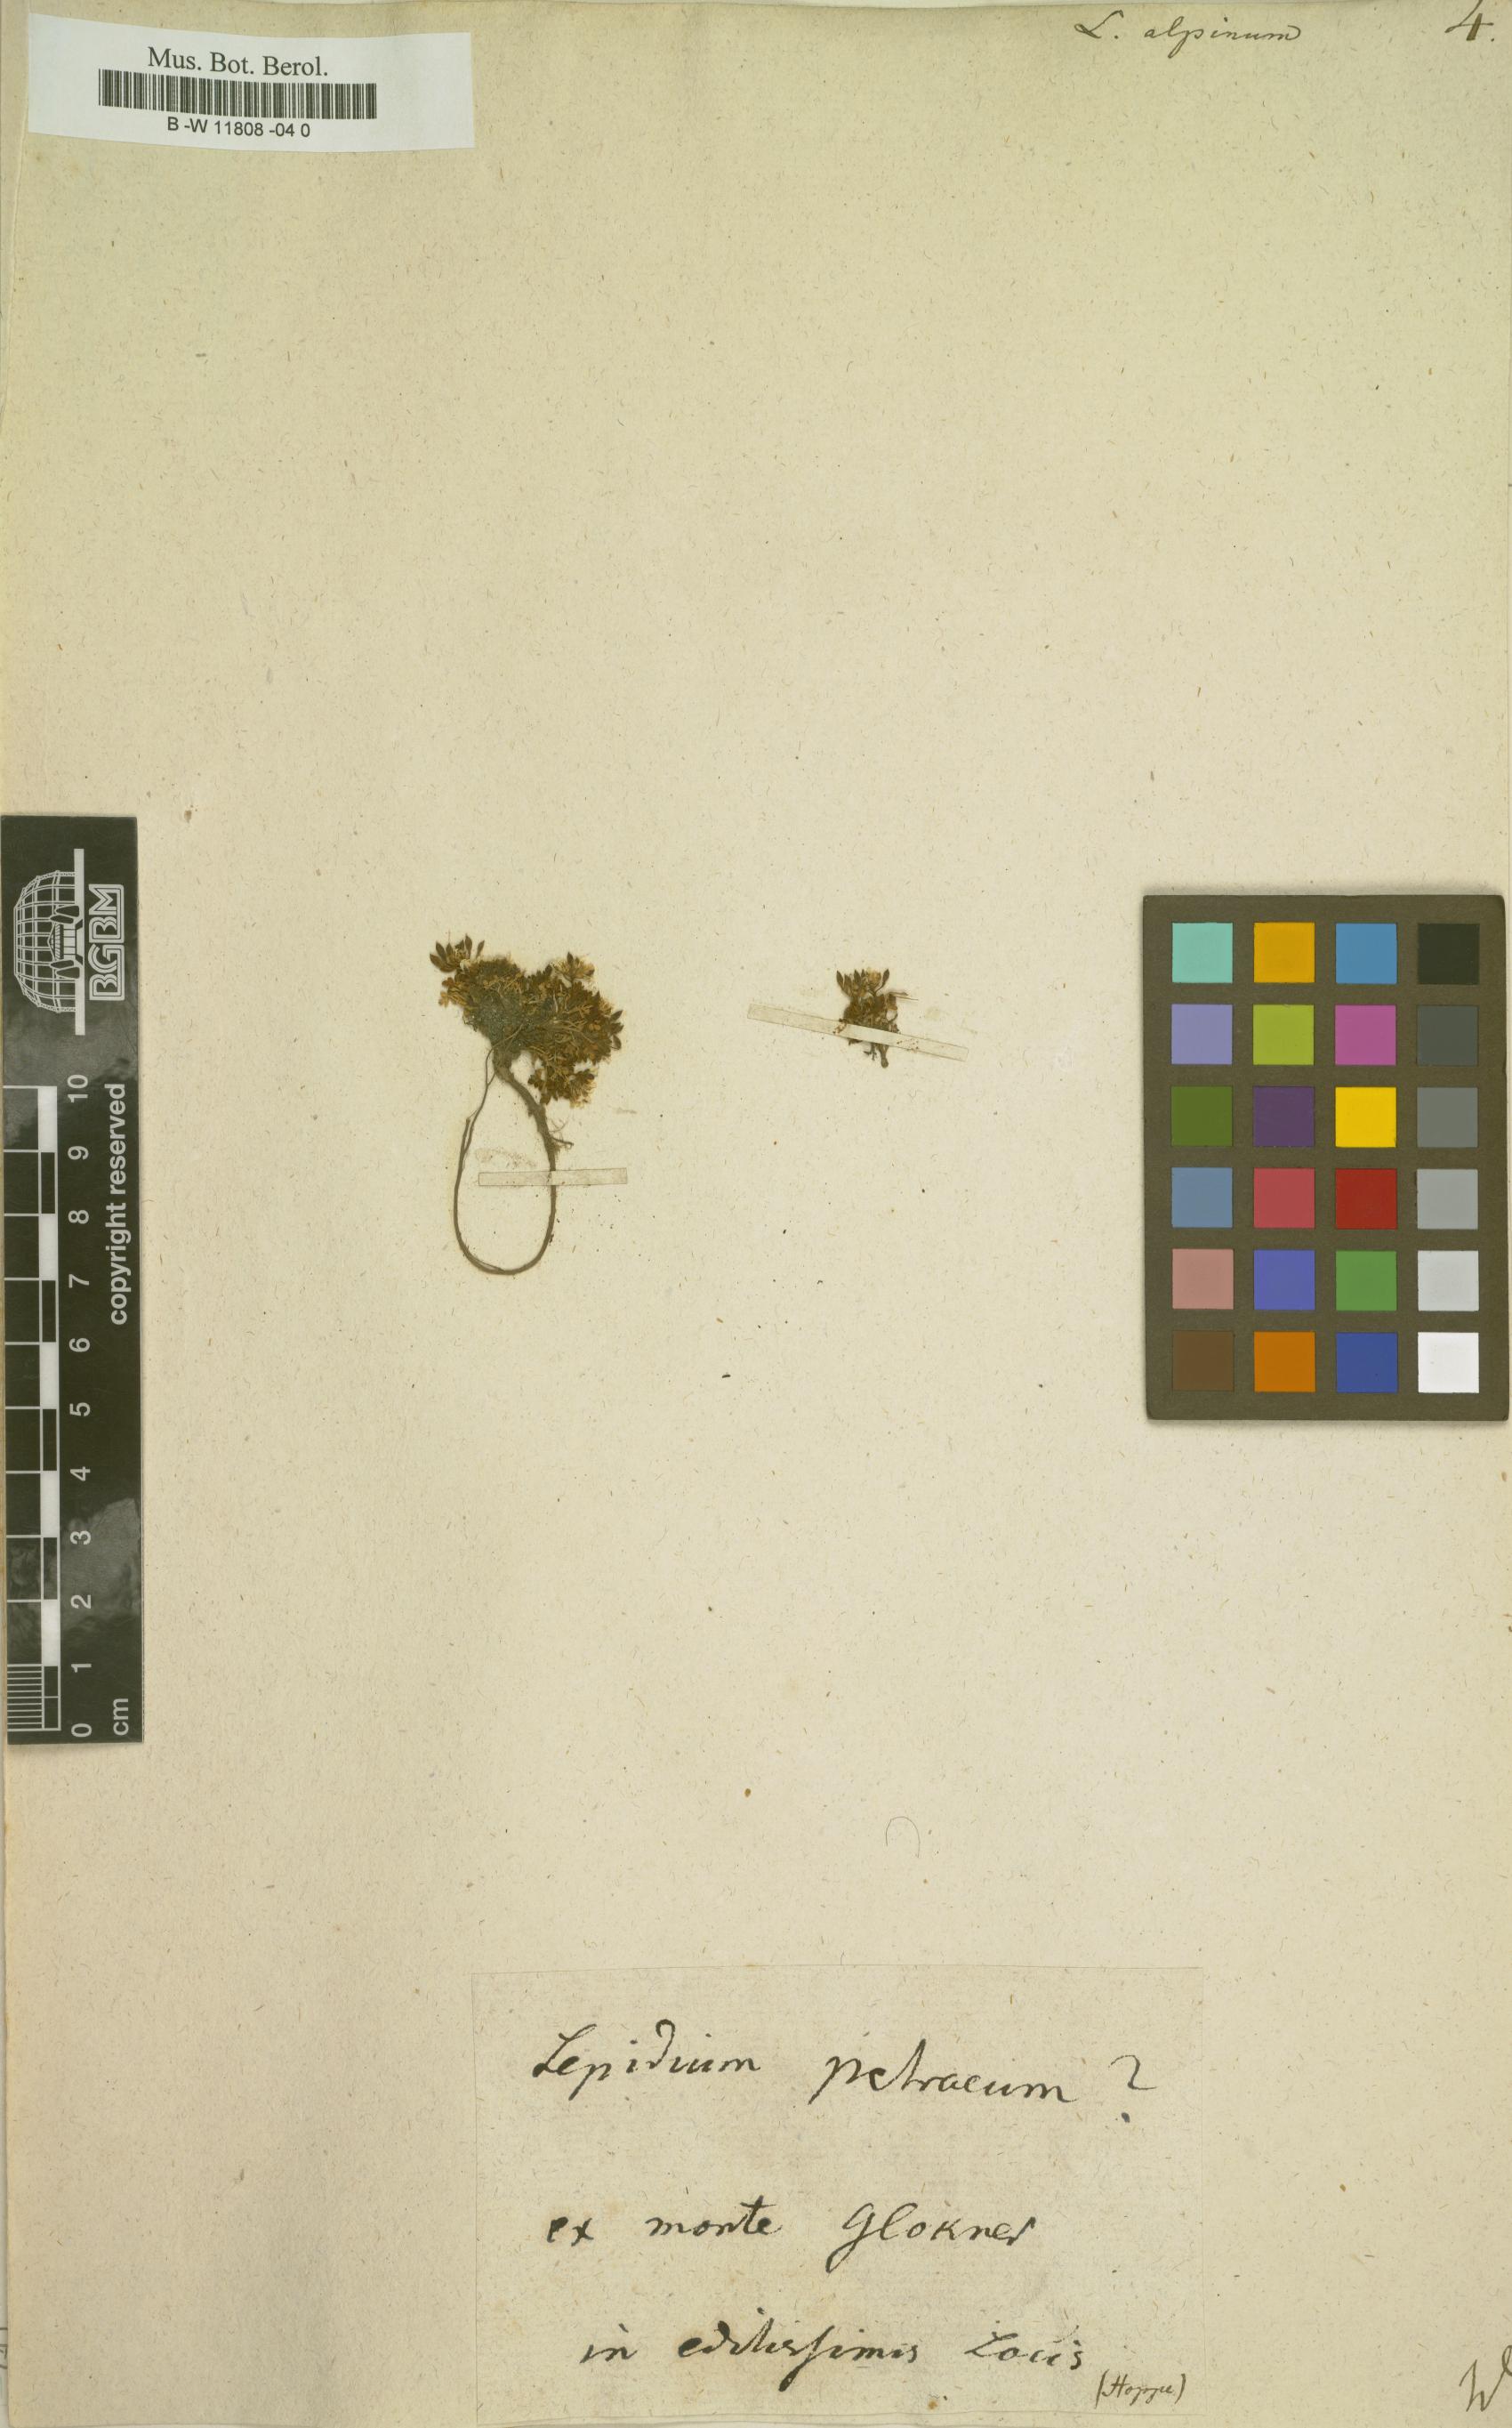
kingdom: Plantae
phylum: Tracheophyta
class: Magnoliopsida
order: Brassicales
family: Brassicaceae
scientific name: Brassicaceae
